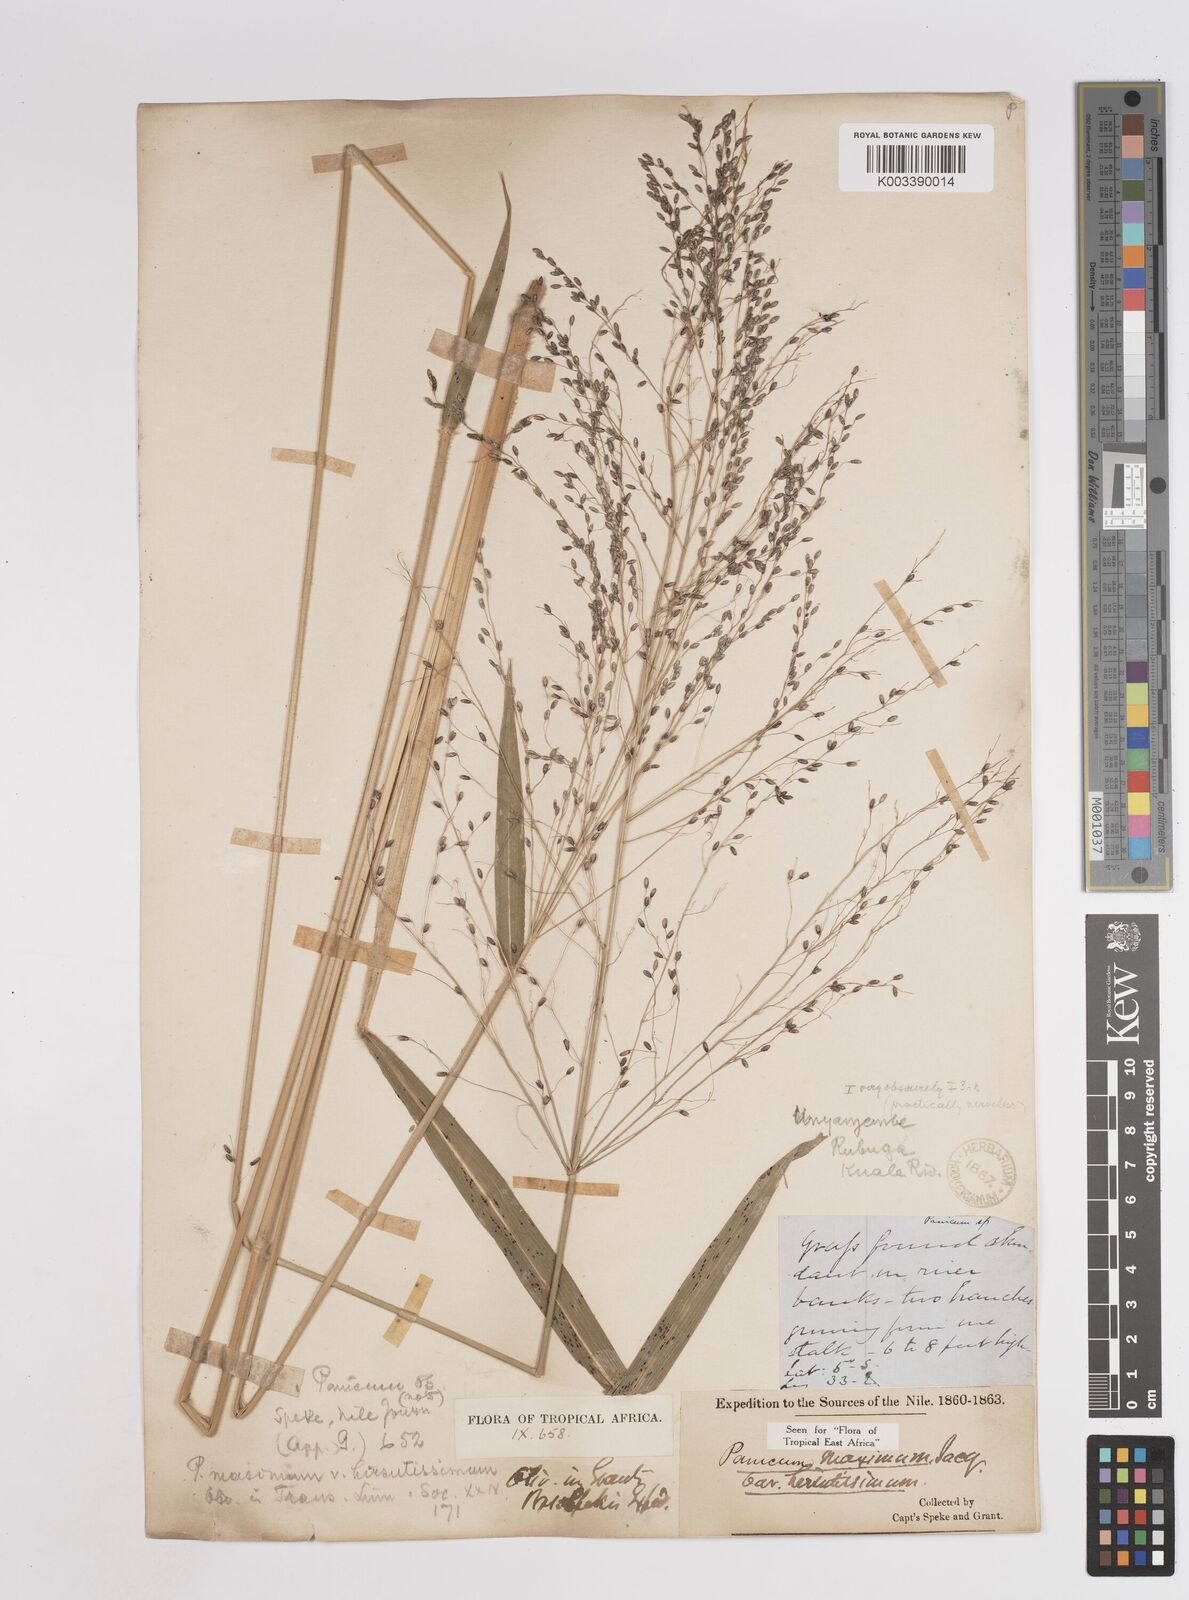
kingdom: Plantae
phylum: Tracheophyta
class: Liliopsida
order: Poales
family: Poaceae
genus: Megathyrsus
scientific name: Megathyrsus maximus
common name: Guineagrass
